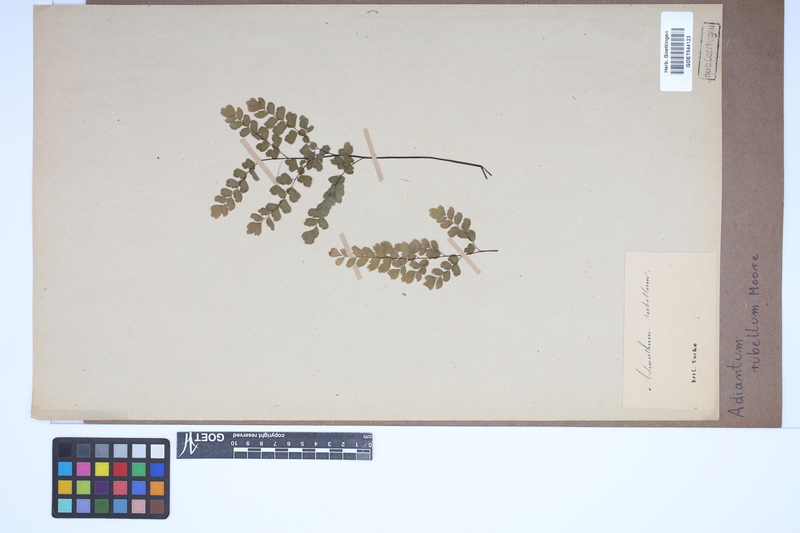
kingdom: Plantae
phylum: Tracheophyta
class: Polypodiopsida
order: Polypodiales
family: Pteridaceae
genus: Adiantum
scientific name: Adiantum raddianum
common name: Delta maidenhair fern
